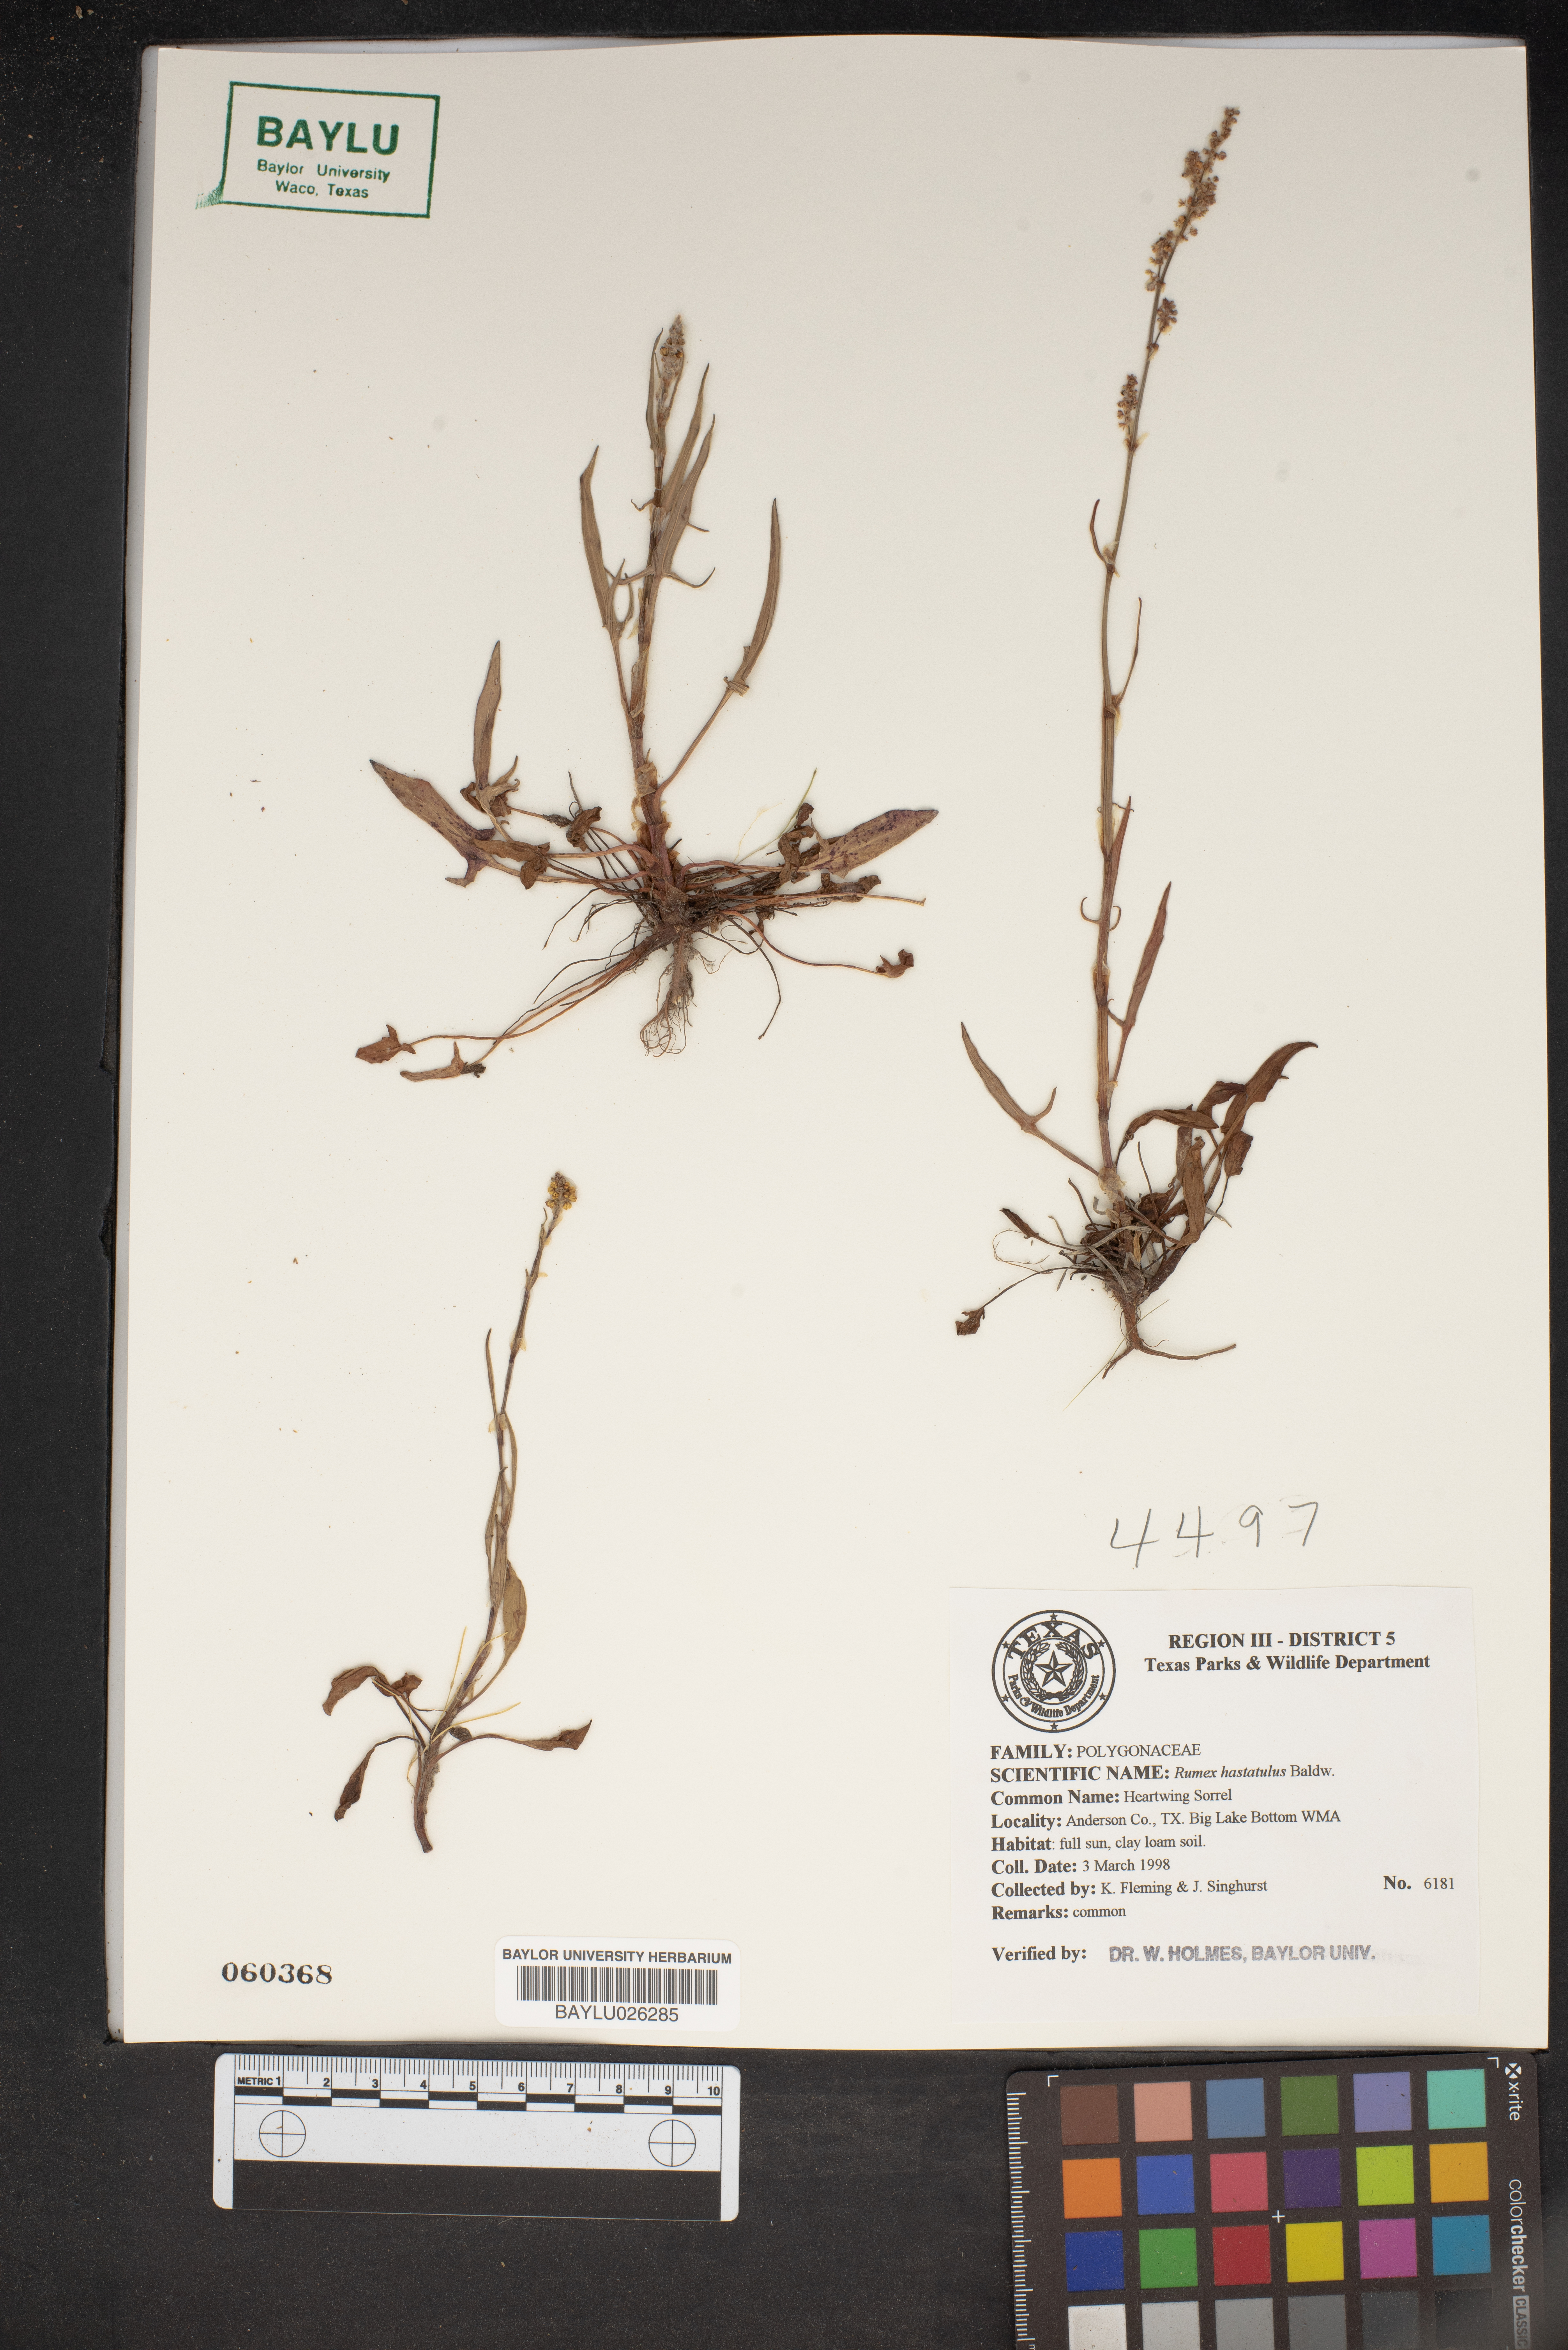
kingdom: Plantae
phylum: Tracheophyta
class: Magnoliopsida
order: Caryophyllales
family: Polygonaceae
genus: Rumex
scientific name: Rumex hastatulus
